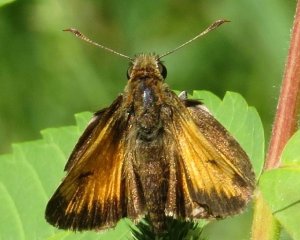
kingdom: Animalia
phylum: Arthropoda
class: Insecta
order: Lepidoptera
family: Hesperiidae
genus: Lon
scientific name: Lon hobomok
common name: Hobomok Skipper
